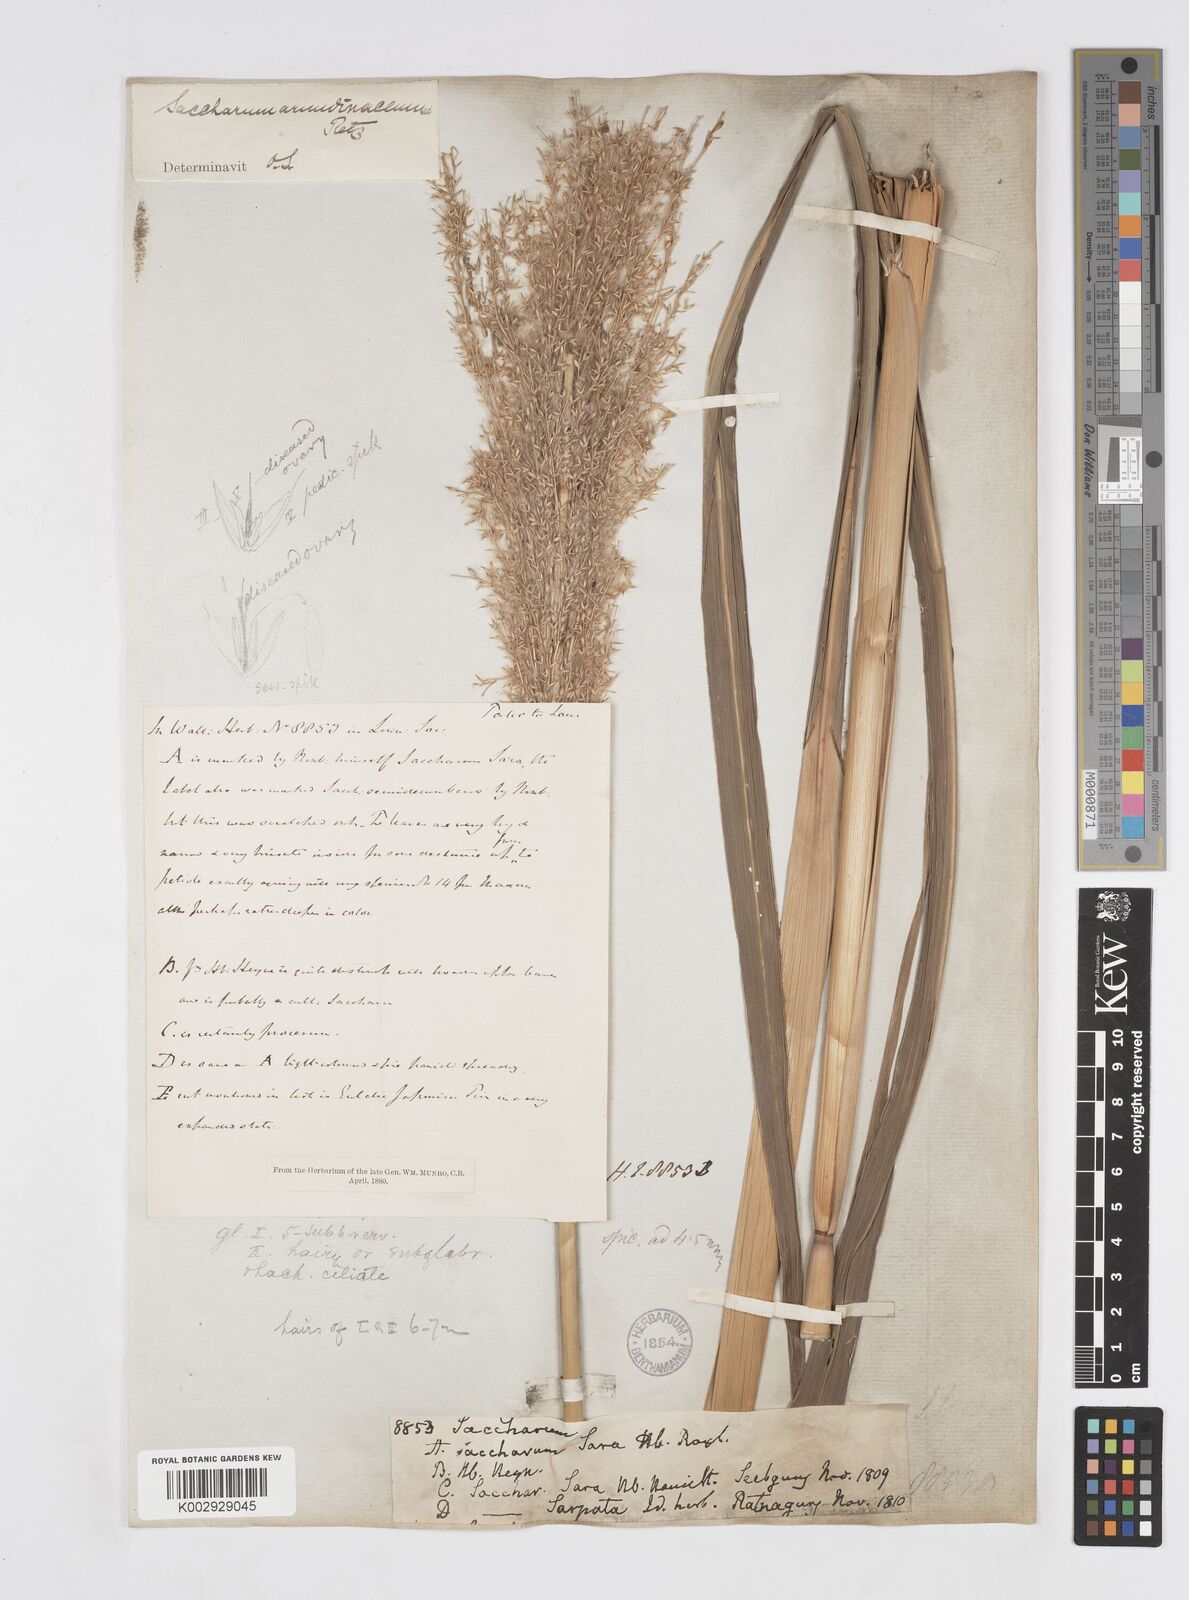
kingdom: Plantae
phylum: Tracheophyta
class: Liliopsida
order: Poales
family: Poaceae
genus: Tripidium
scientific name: Tripidium arundinaceum
